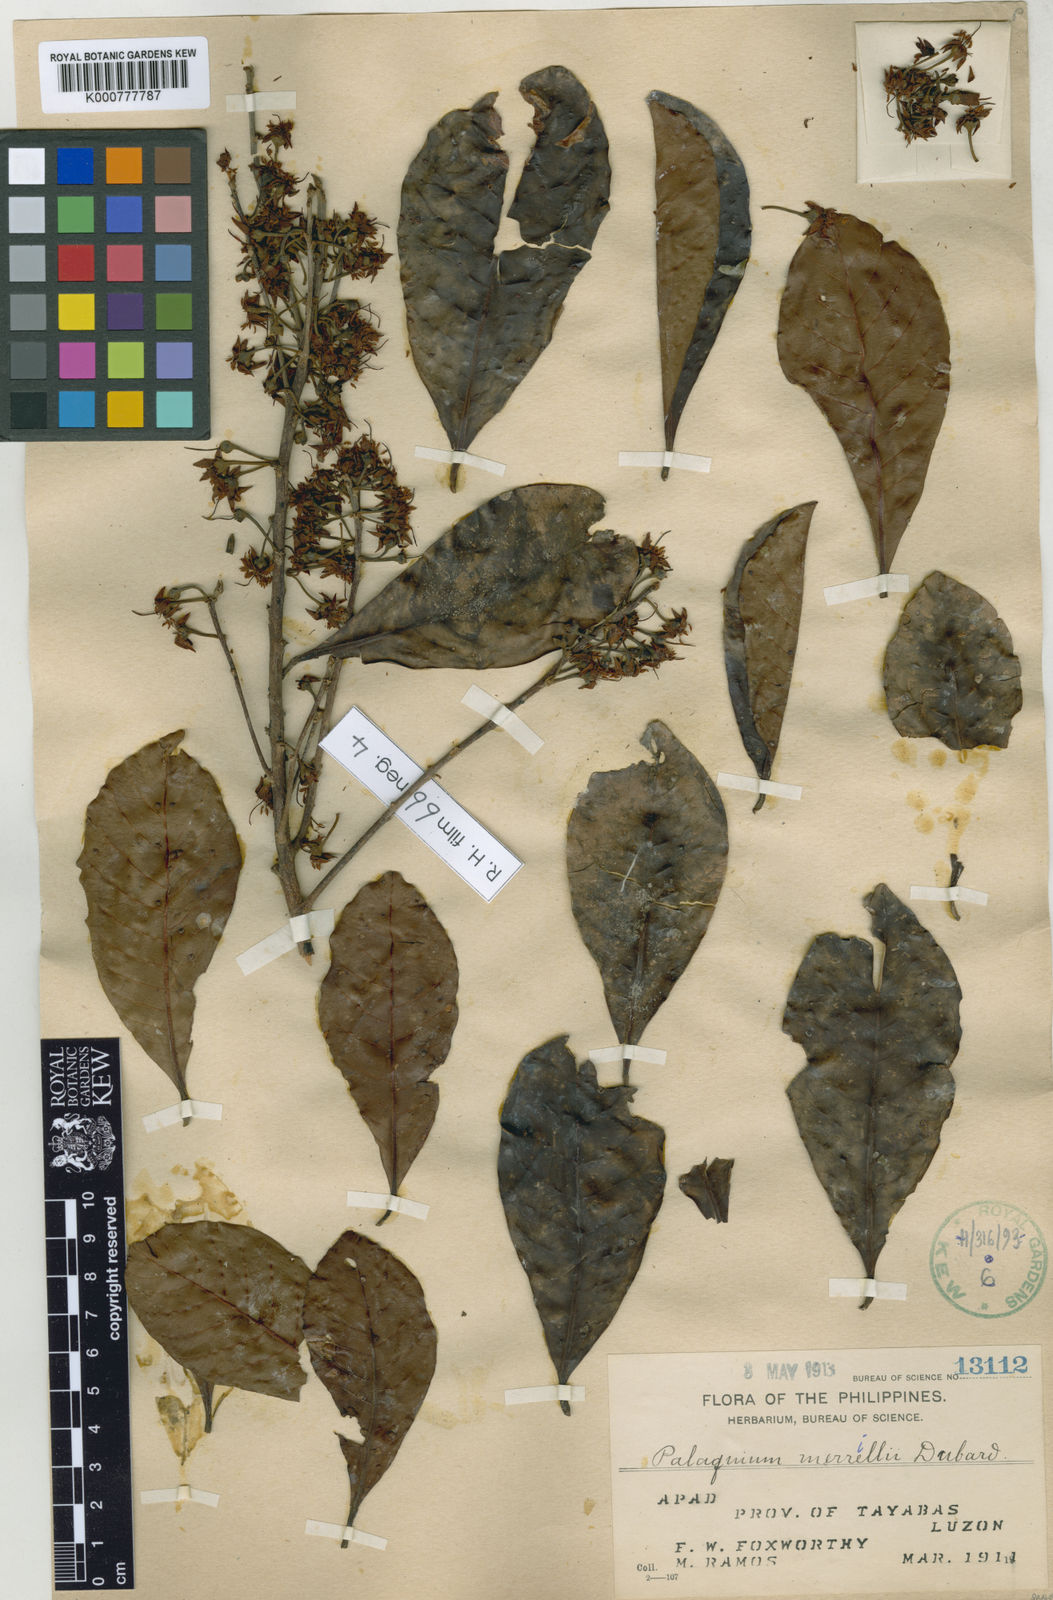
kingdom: Plantae
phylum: Tracheophyta
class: Magnoliopsida
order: Ericales
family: Sapotaceae
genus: Palaquium
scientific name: Palaquium foxworthyi
